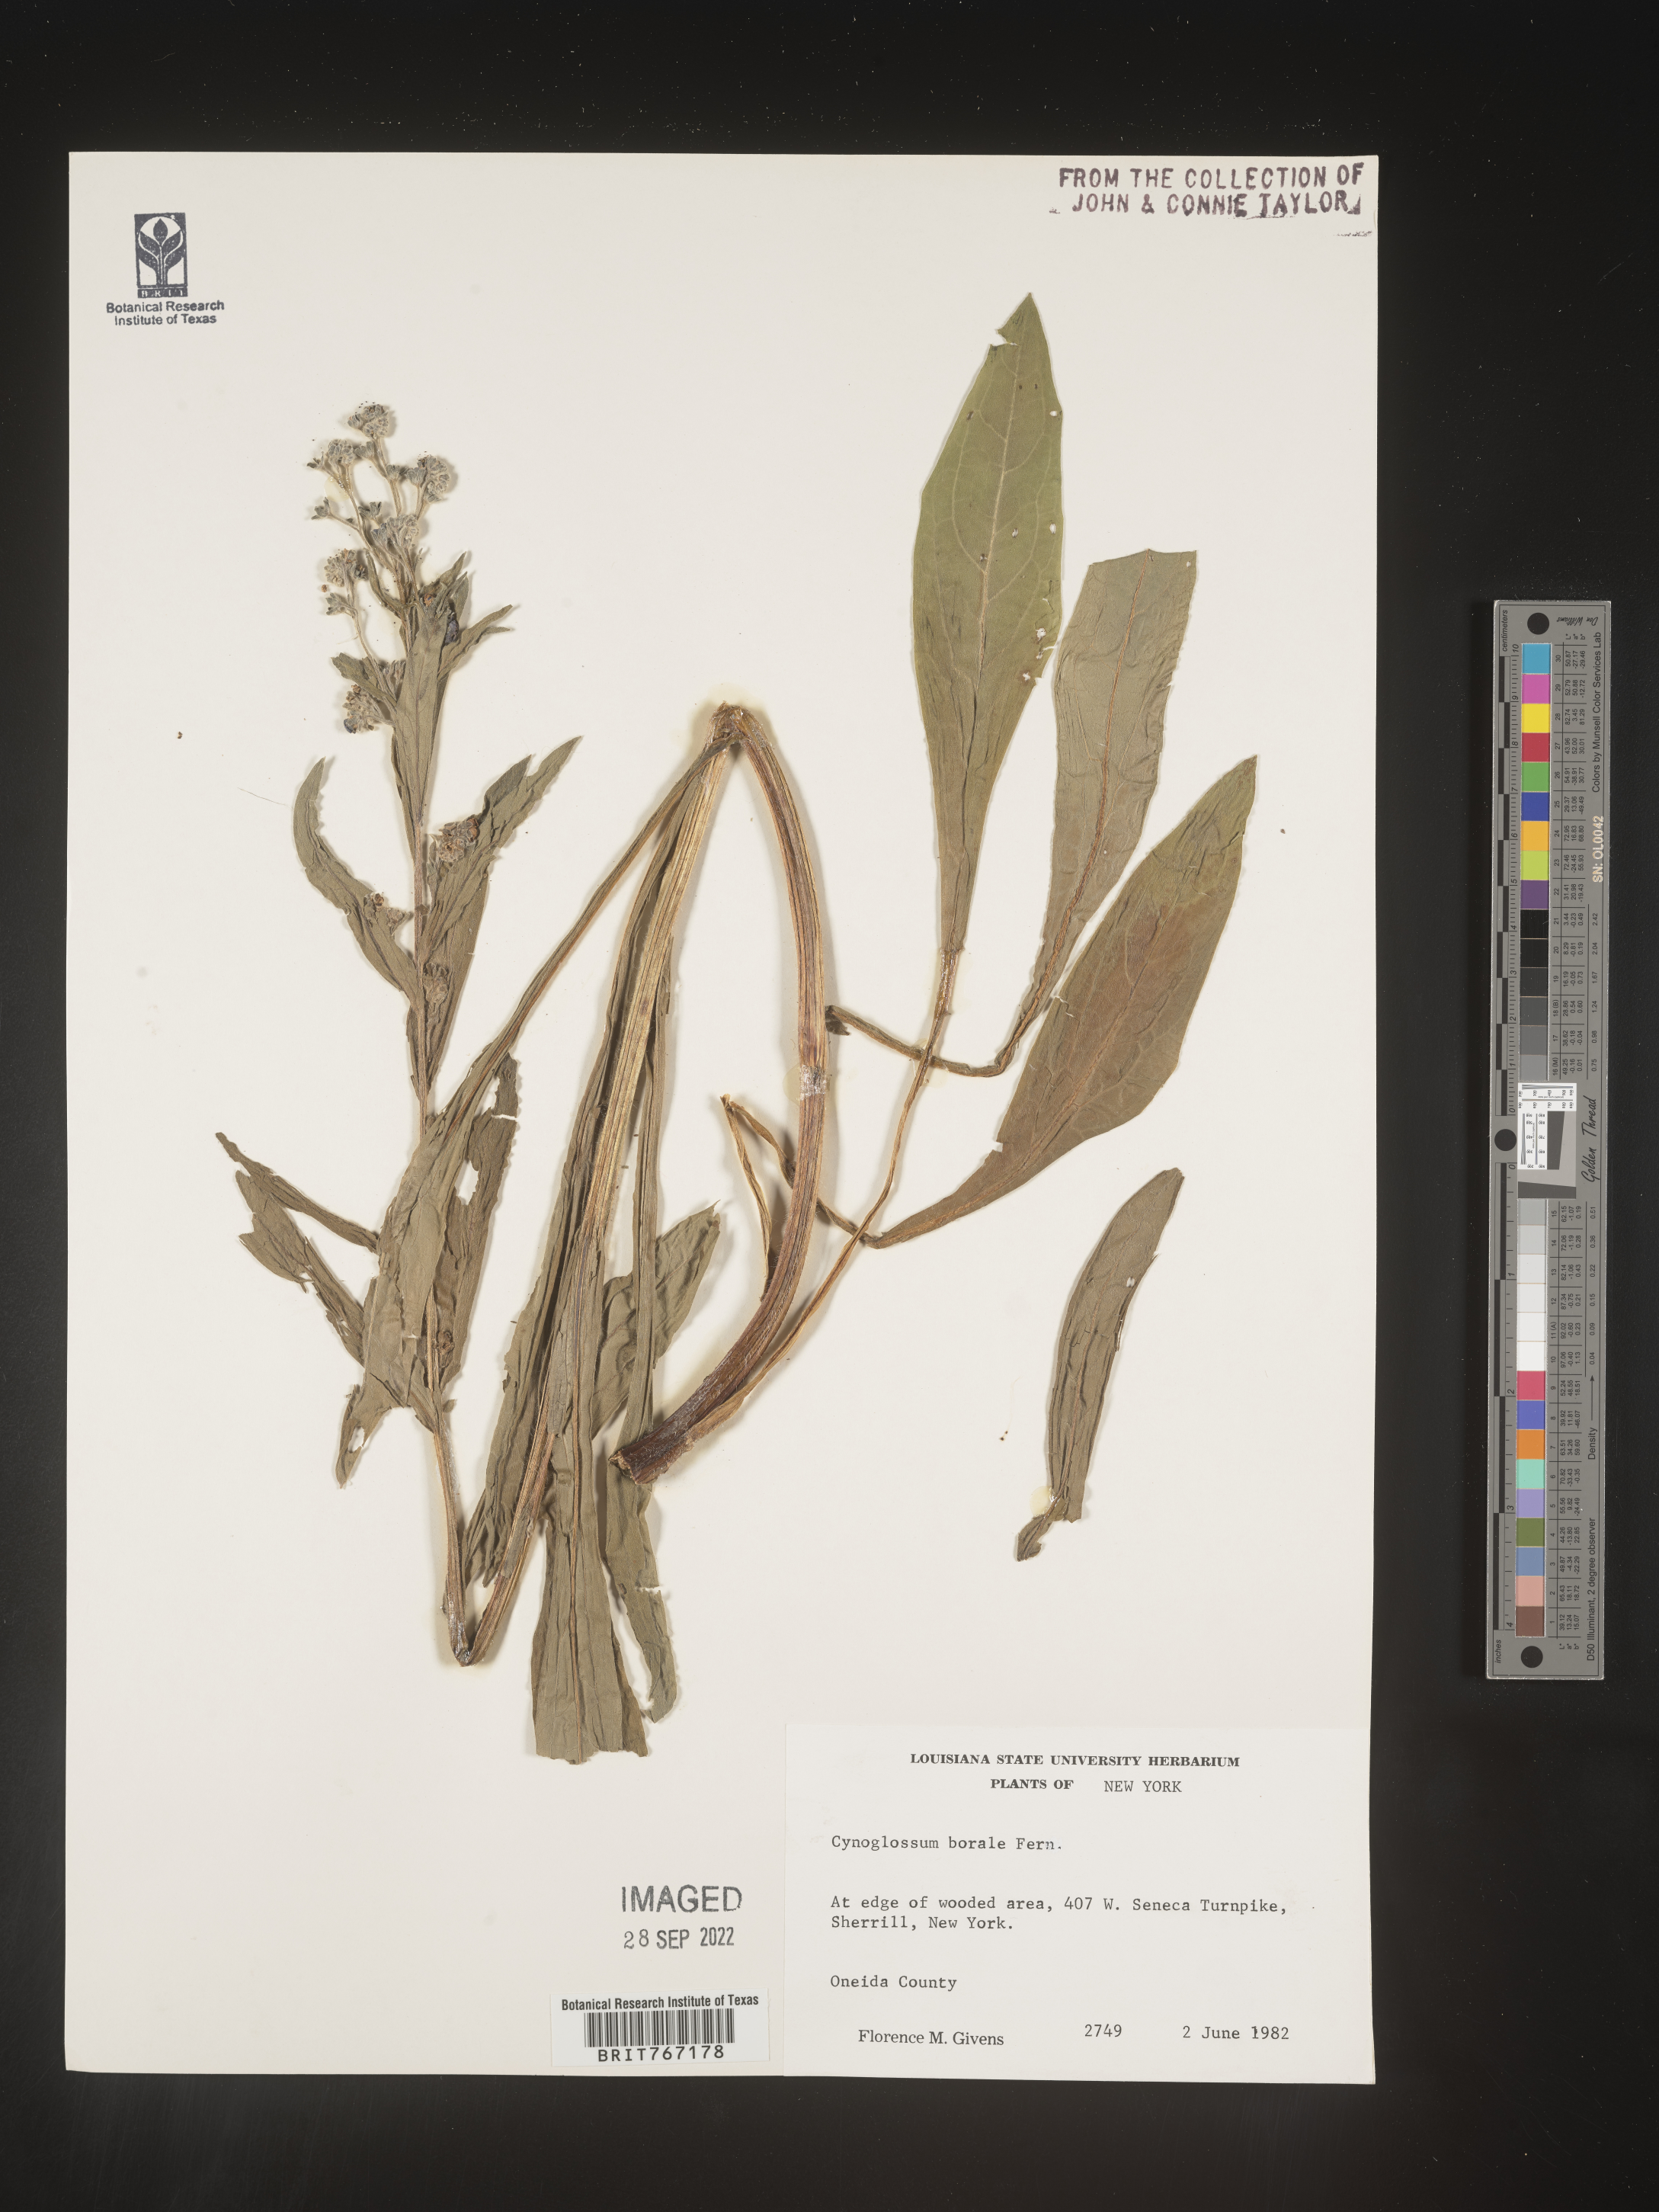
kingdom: Plantae
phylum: Tracheophyta
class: Magnoliopsida
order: Boraginales
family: Boraginaceae
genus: Cynoglossum
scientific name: Cynoglossum
